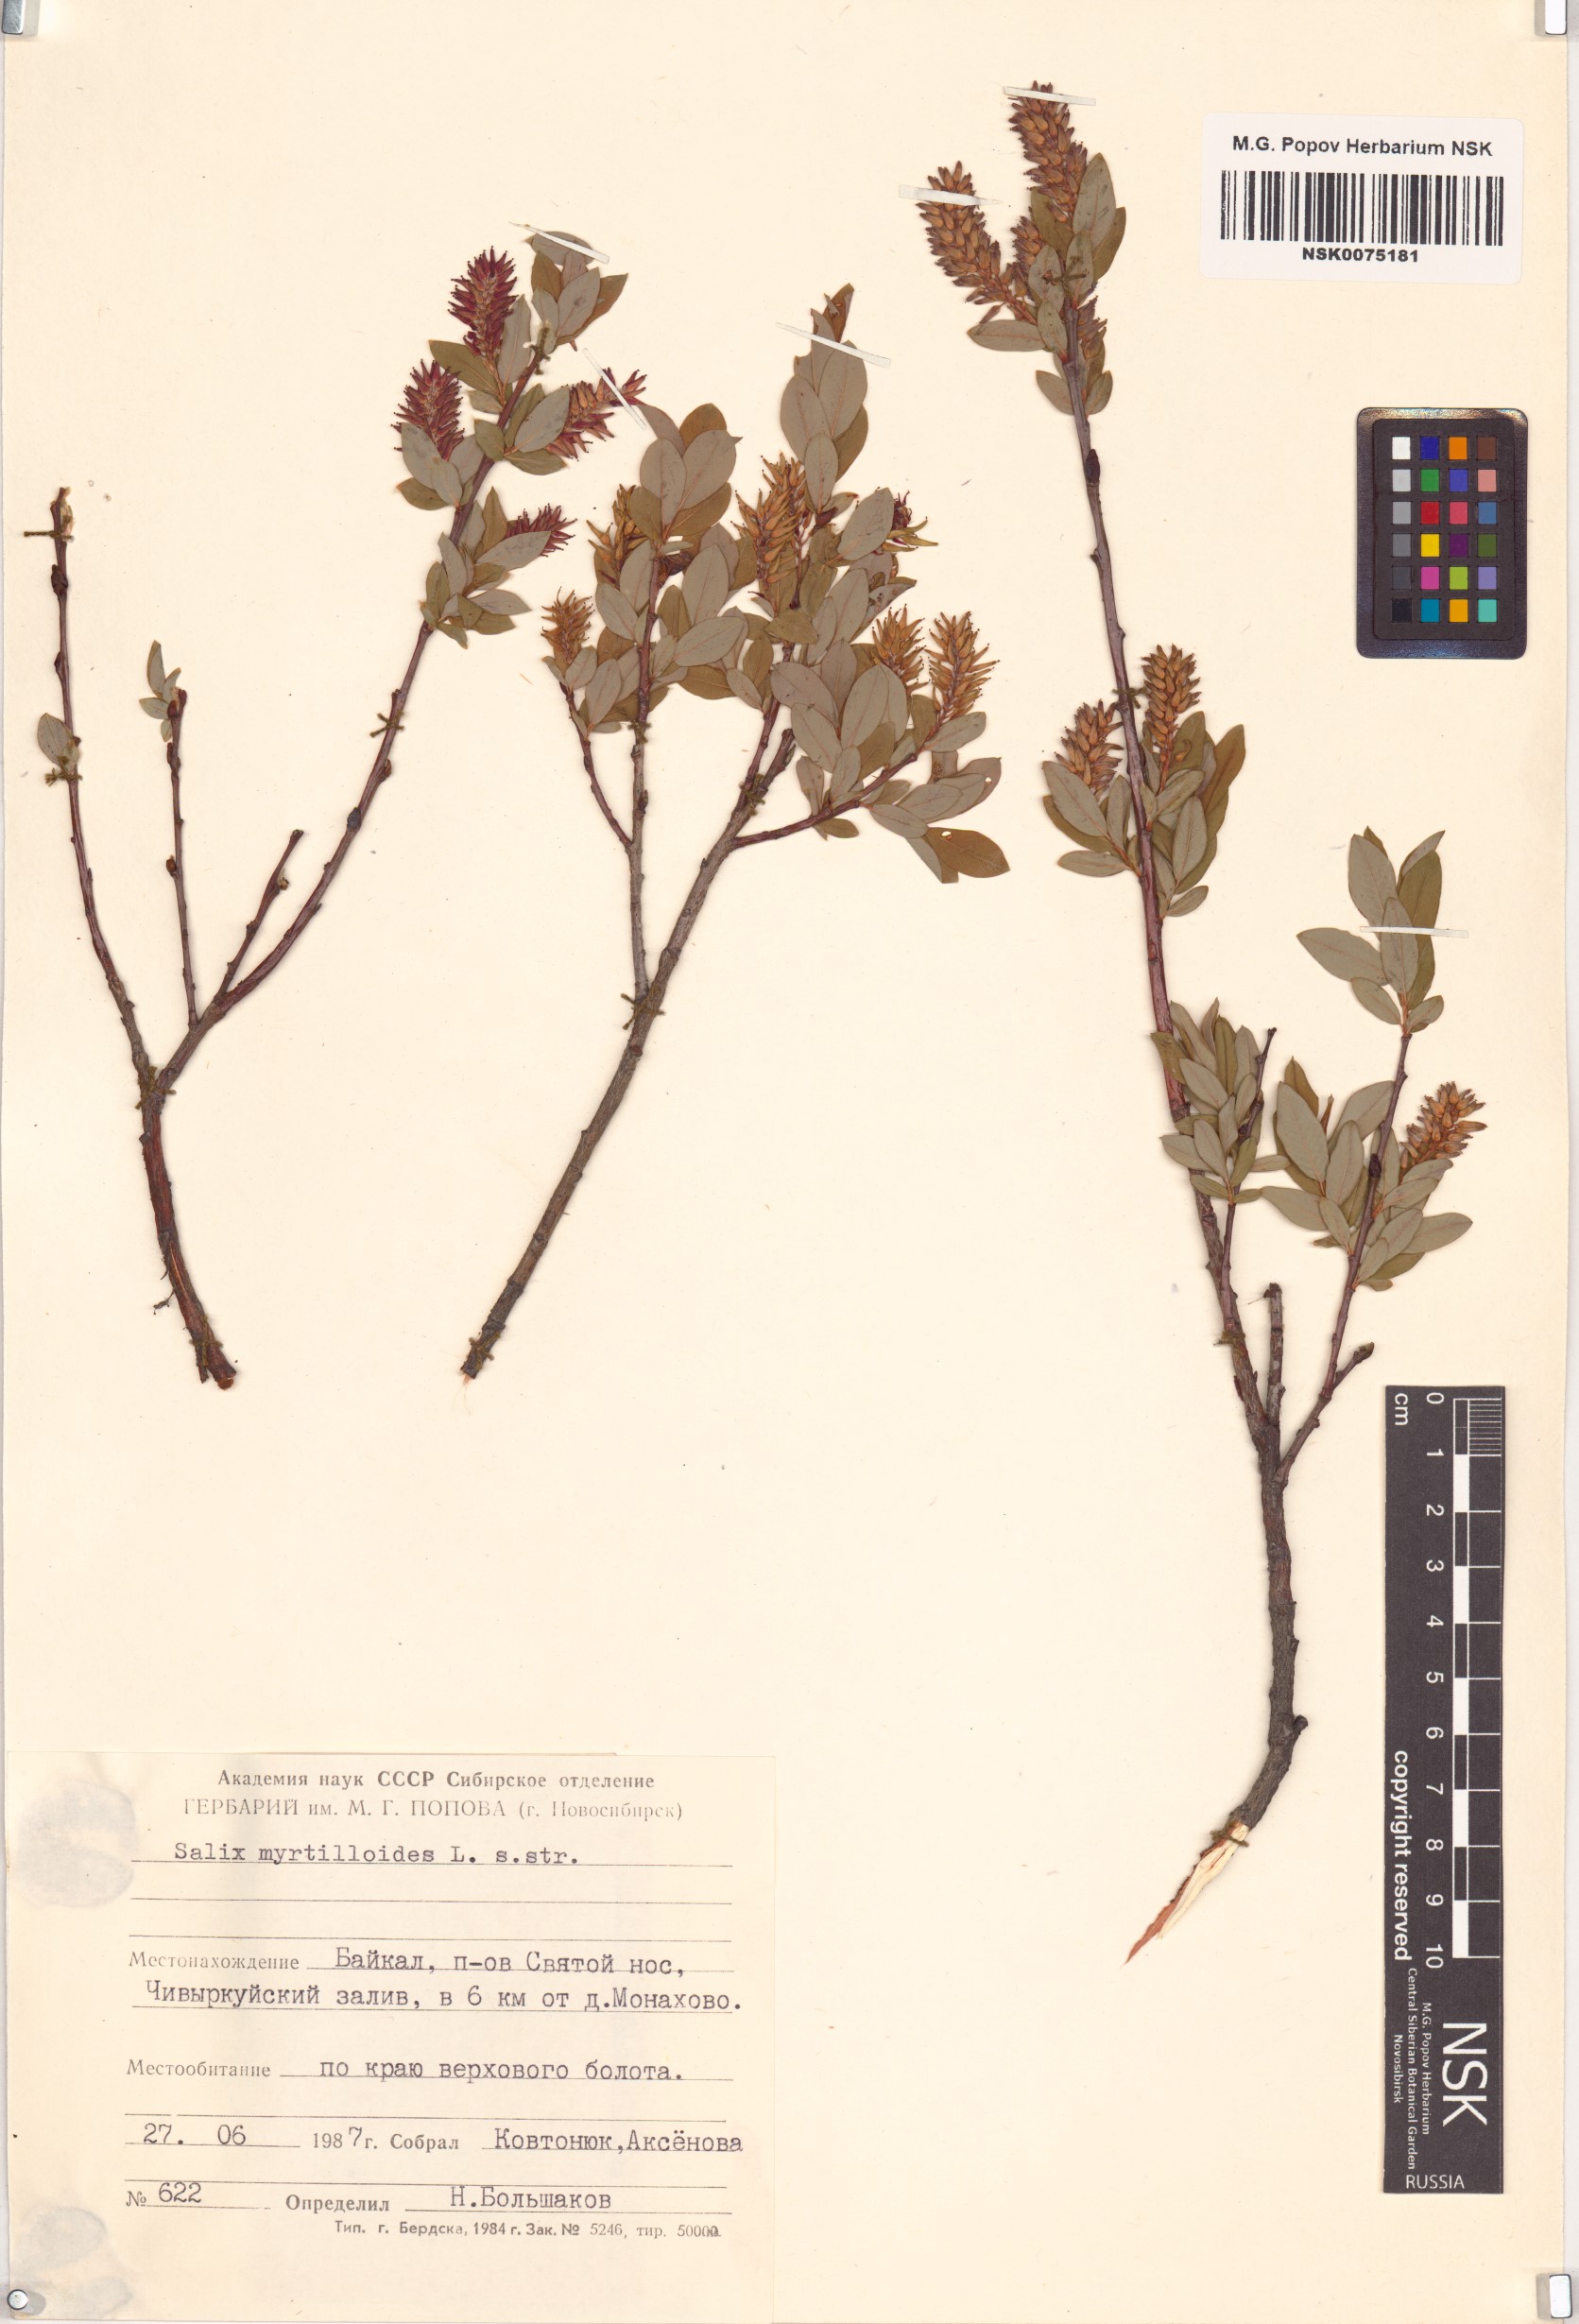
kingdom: Plantae
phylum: Tracheophyta
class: Magnoliopsida
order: Malpighiales
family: Salicaceae
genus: Salix
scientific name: Salix myrtilloides
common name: Myrtle-leaved willow
